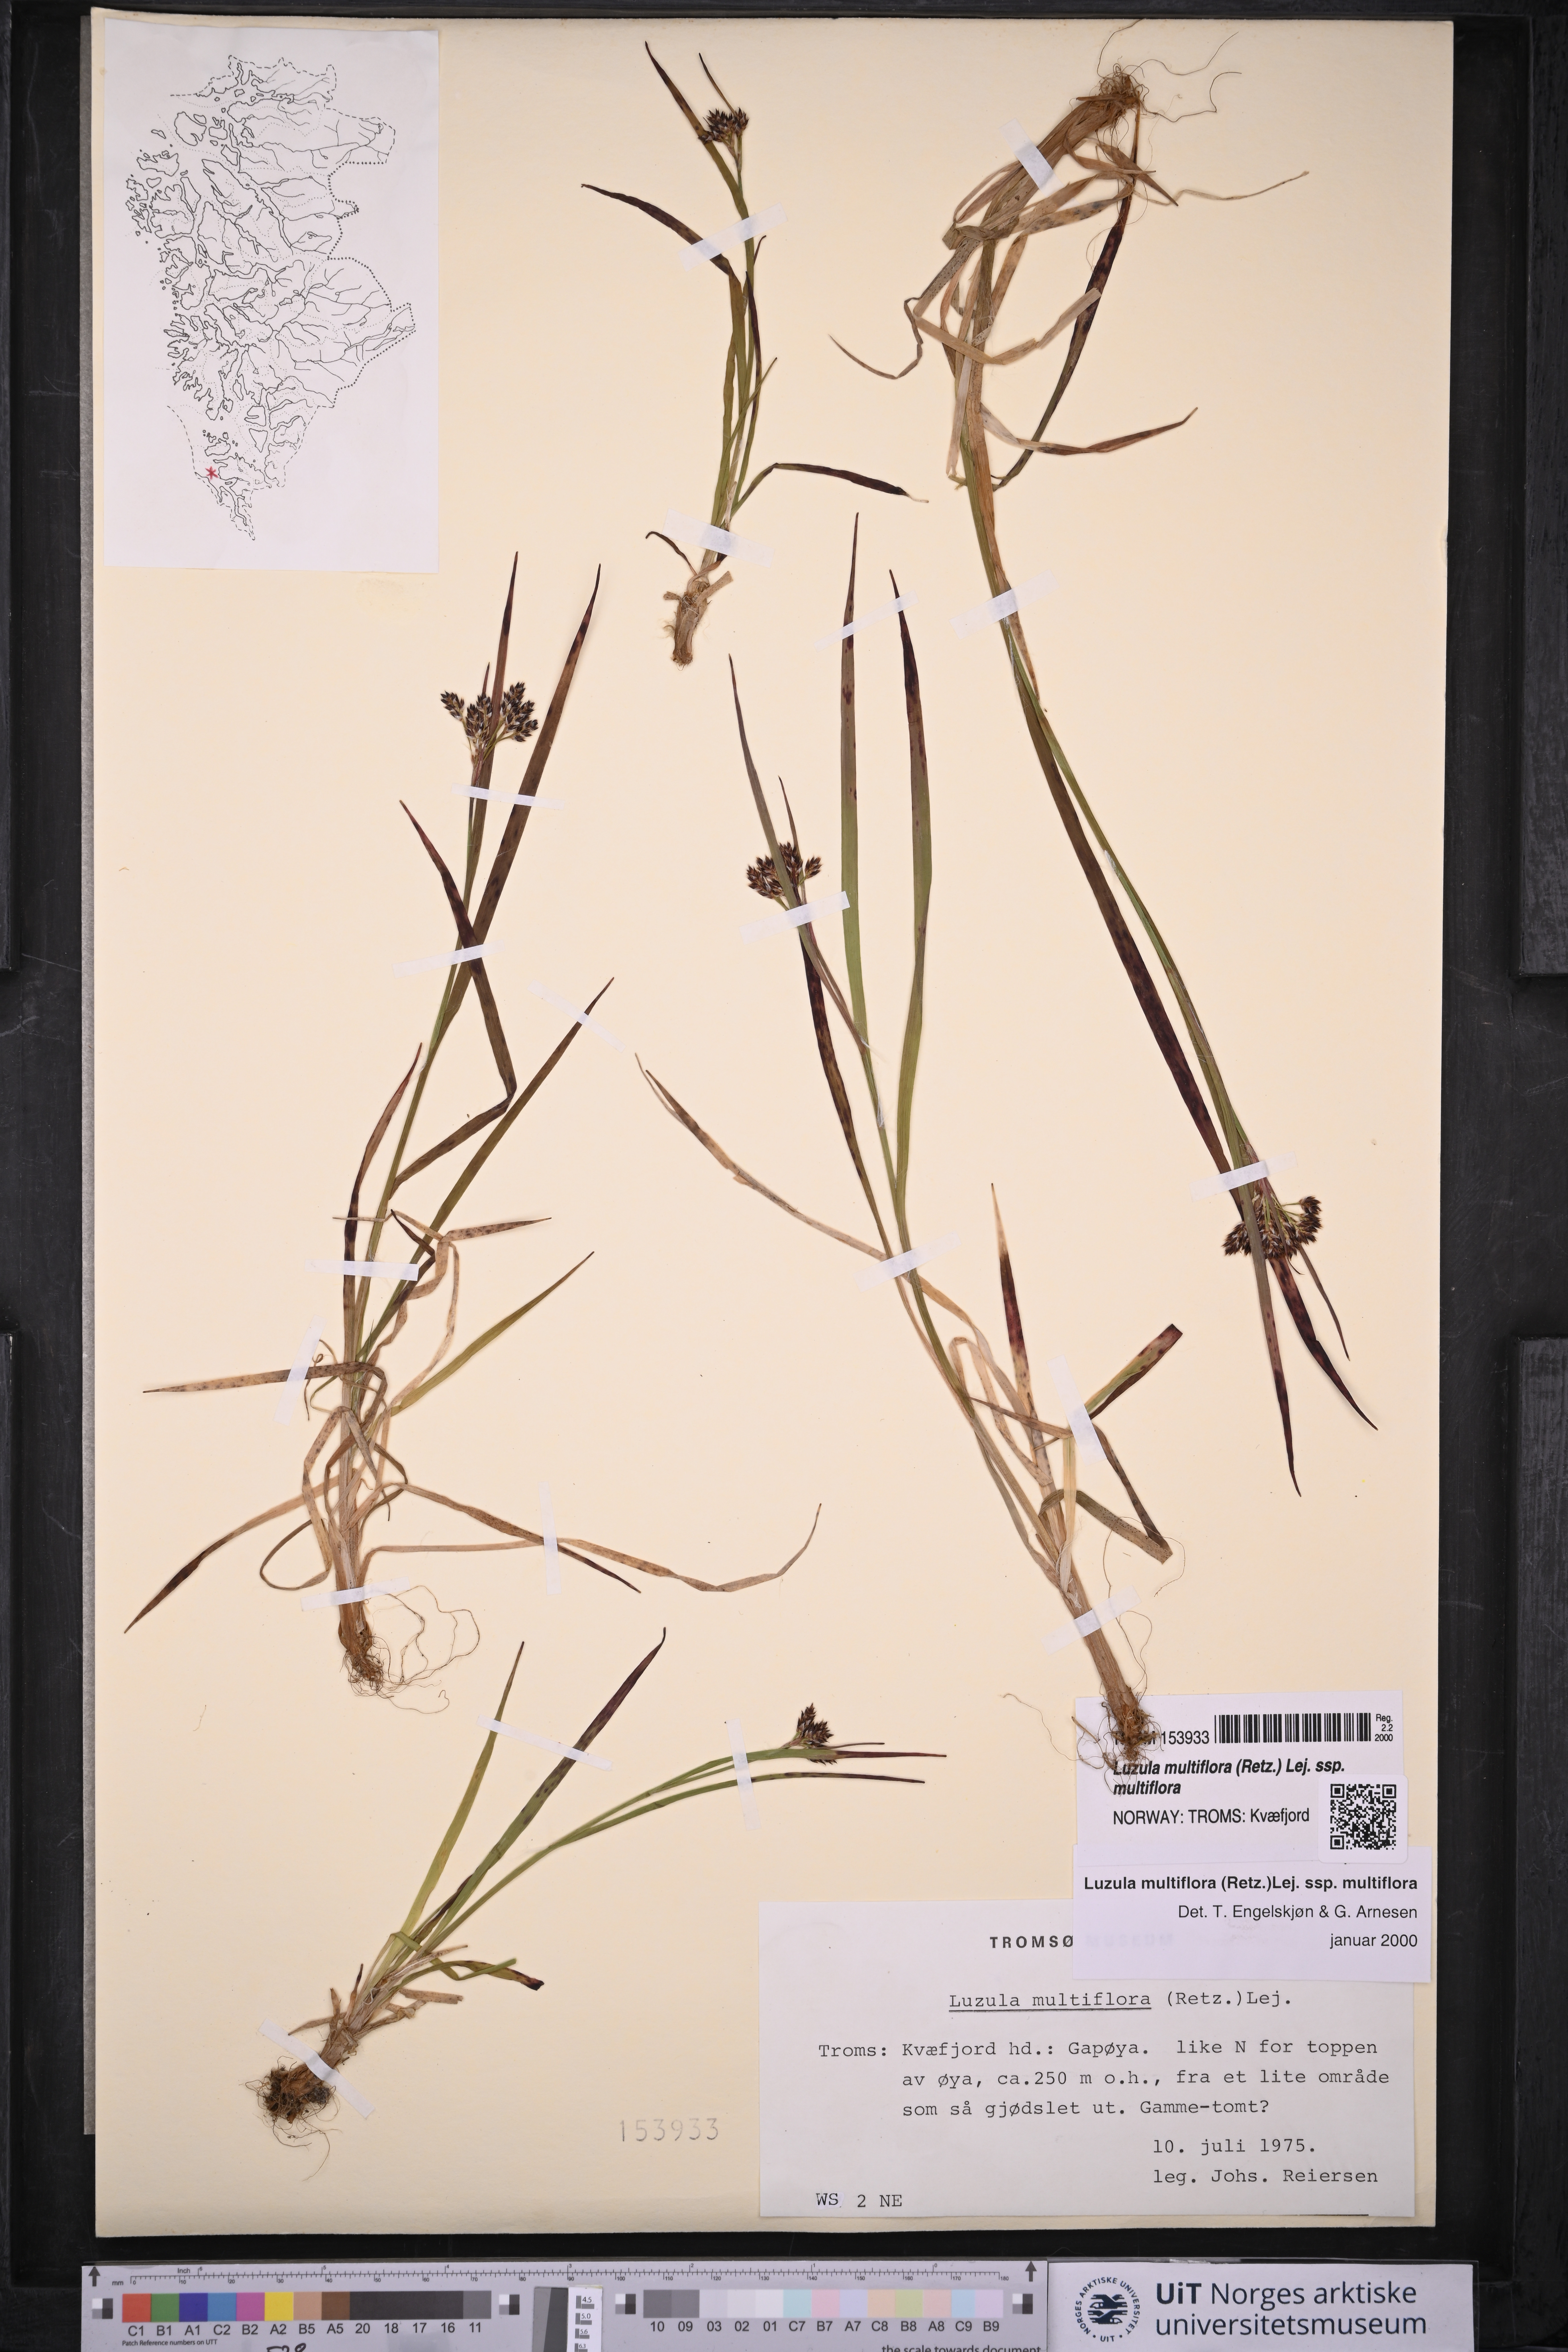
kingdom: Plantae
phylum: Tracheophyta
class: Liliopsida
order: Poales
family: Juncaceae
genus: Luzula
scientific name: Luzula multiflora
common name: Heath wood-rush
